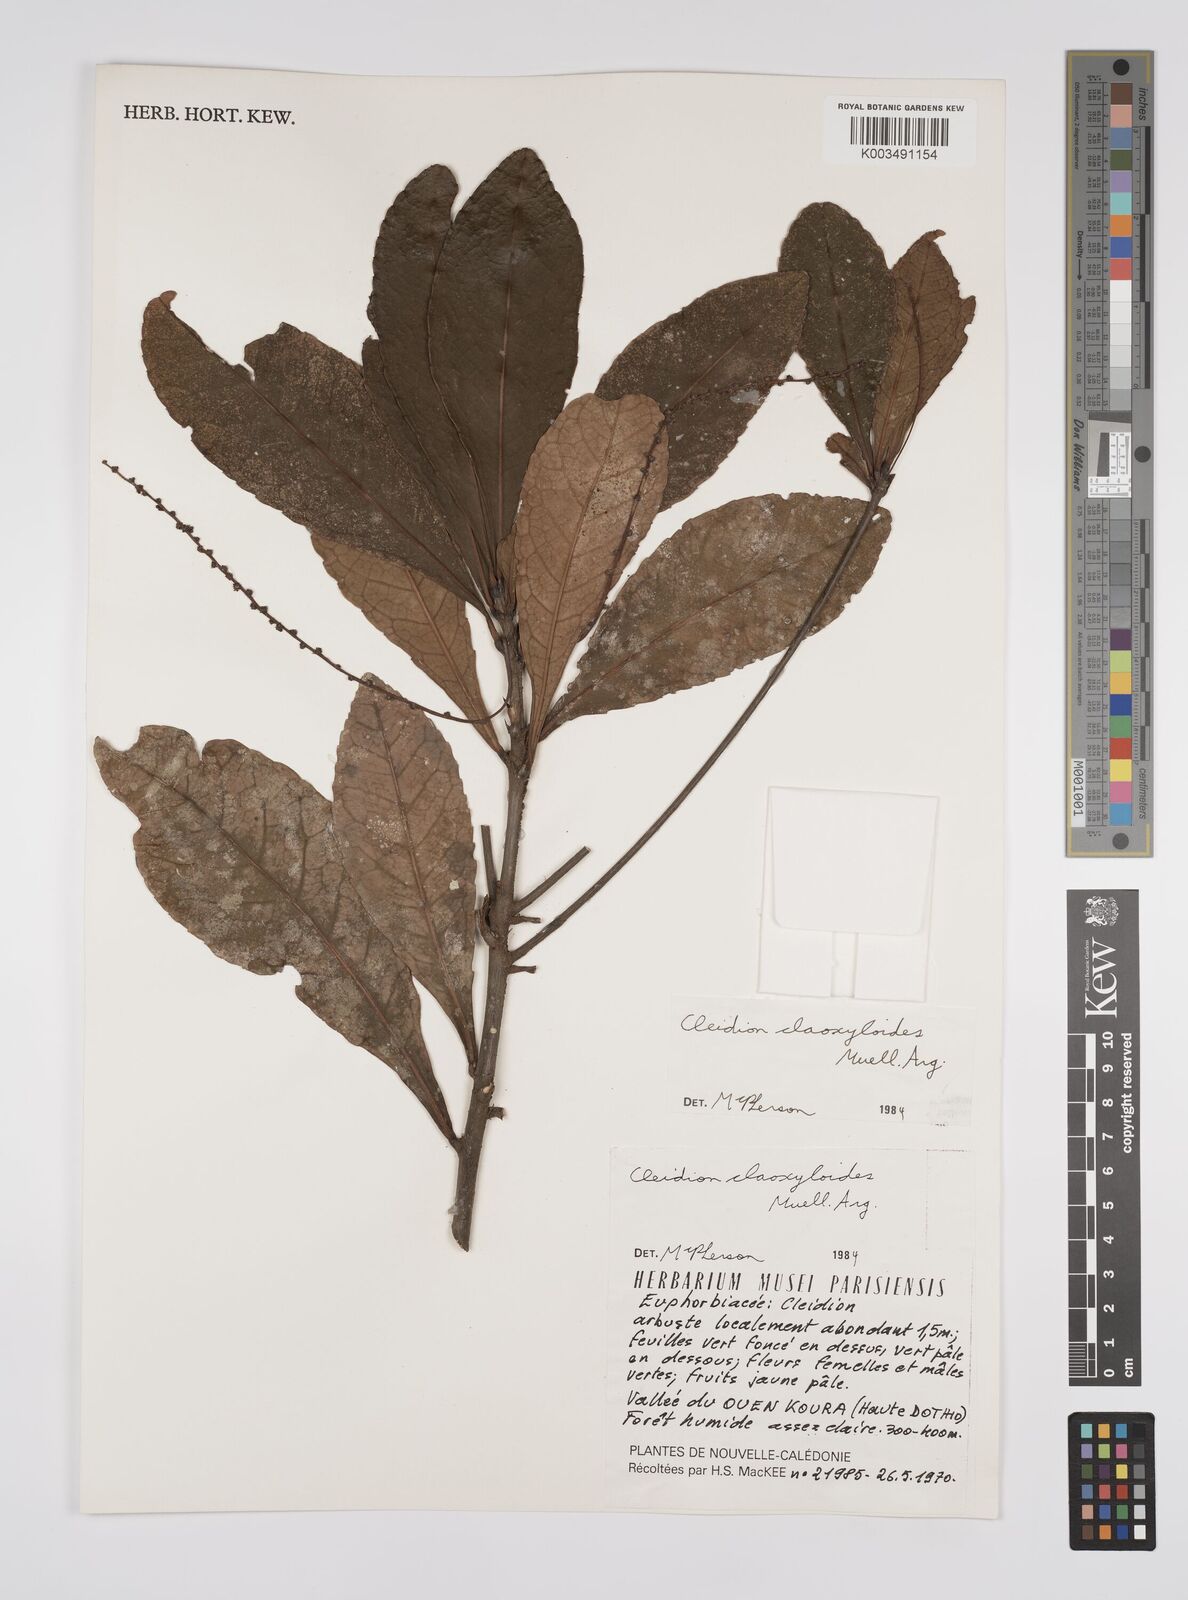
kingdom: Plantae
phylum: Tracheophyta
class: Magnoliopsida
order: Malpighiales
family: Euphorbiaceae
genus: Cleidion
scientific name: Cleidion claoxyloides
